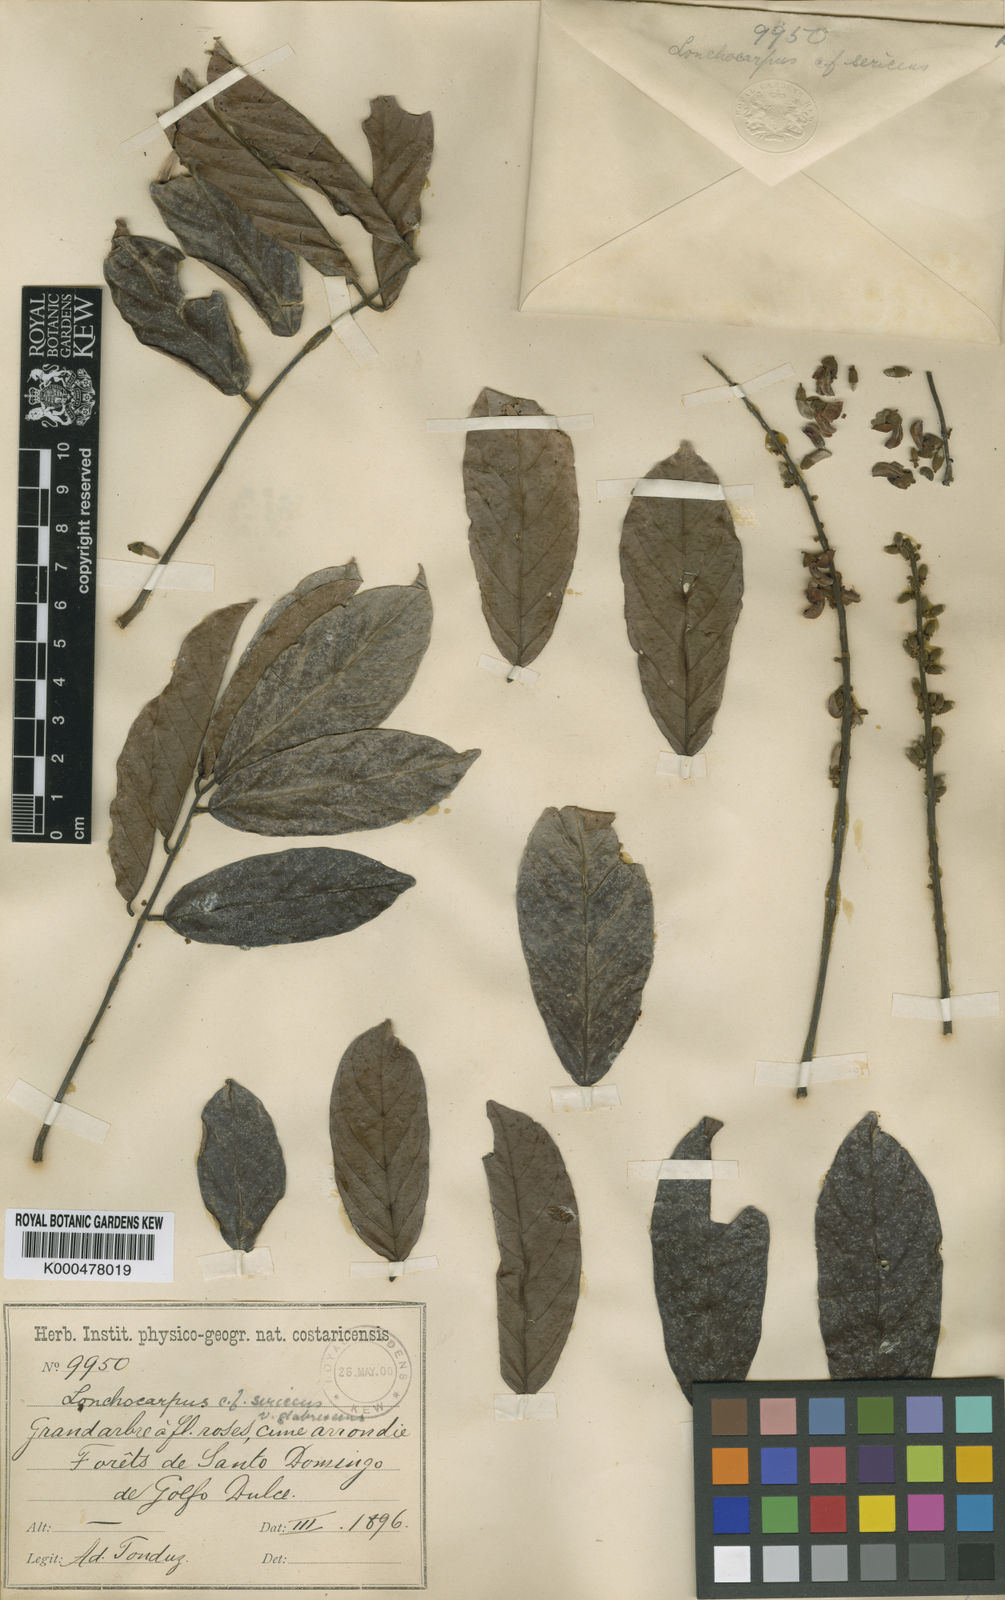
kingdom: Plantae
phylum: Tracheophyta
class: Magnoliopsida
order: Fabales
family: Fabaceae
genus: Lonchocarpus
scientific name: Lonchocarpus macrophyllus
